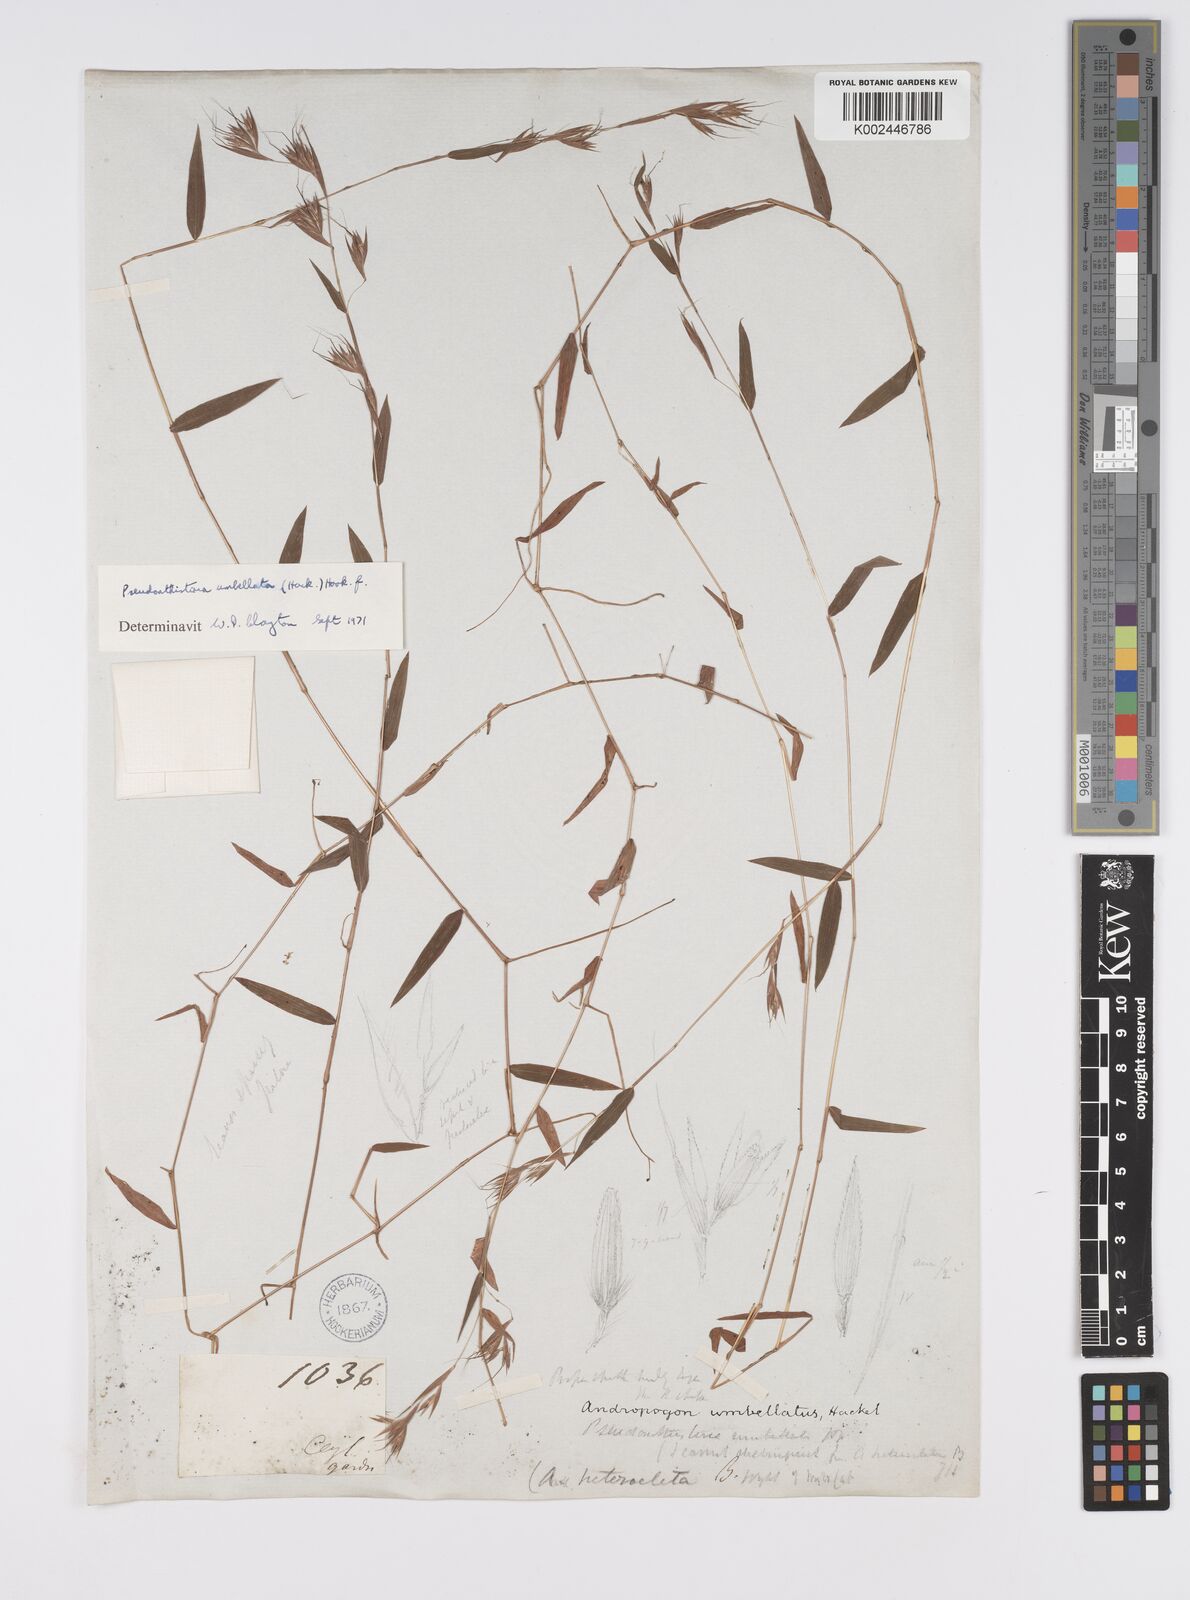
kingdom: Plantae
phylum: Tracheophyta
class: Liliopsida
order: Poales
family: Poaceae
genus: Pseudanthistiria
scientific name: Pseudanthistiria umbellata
